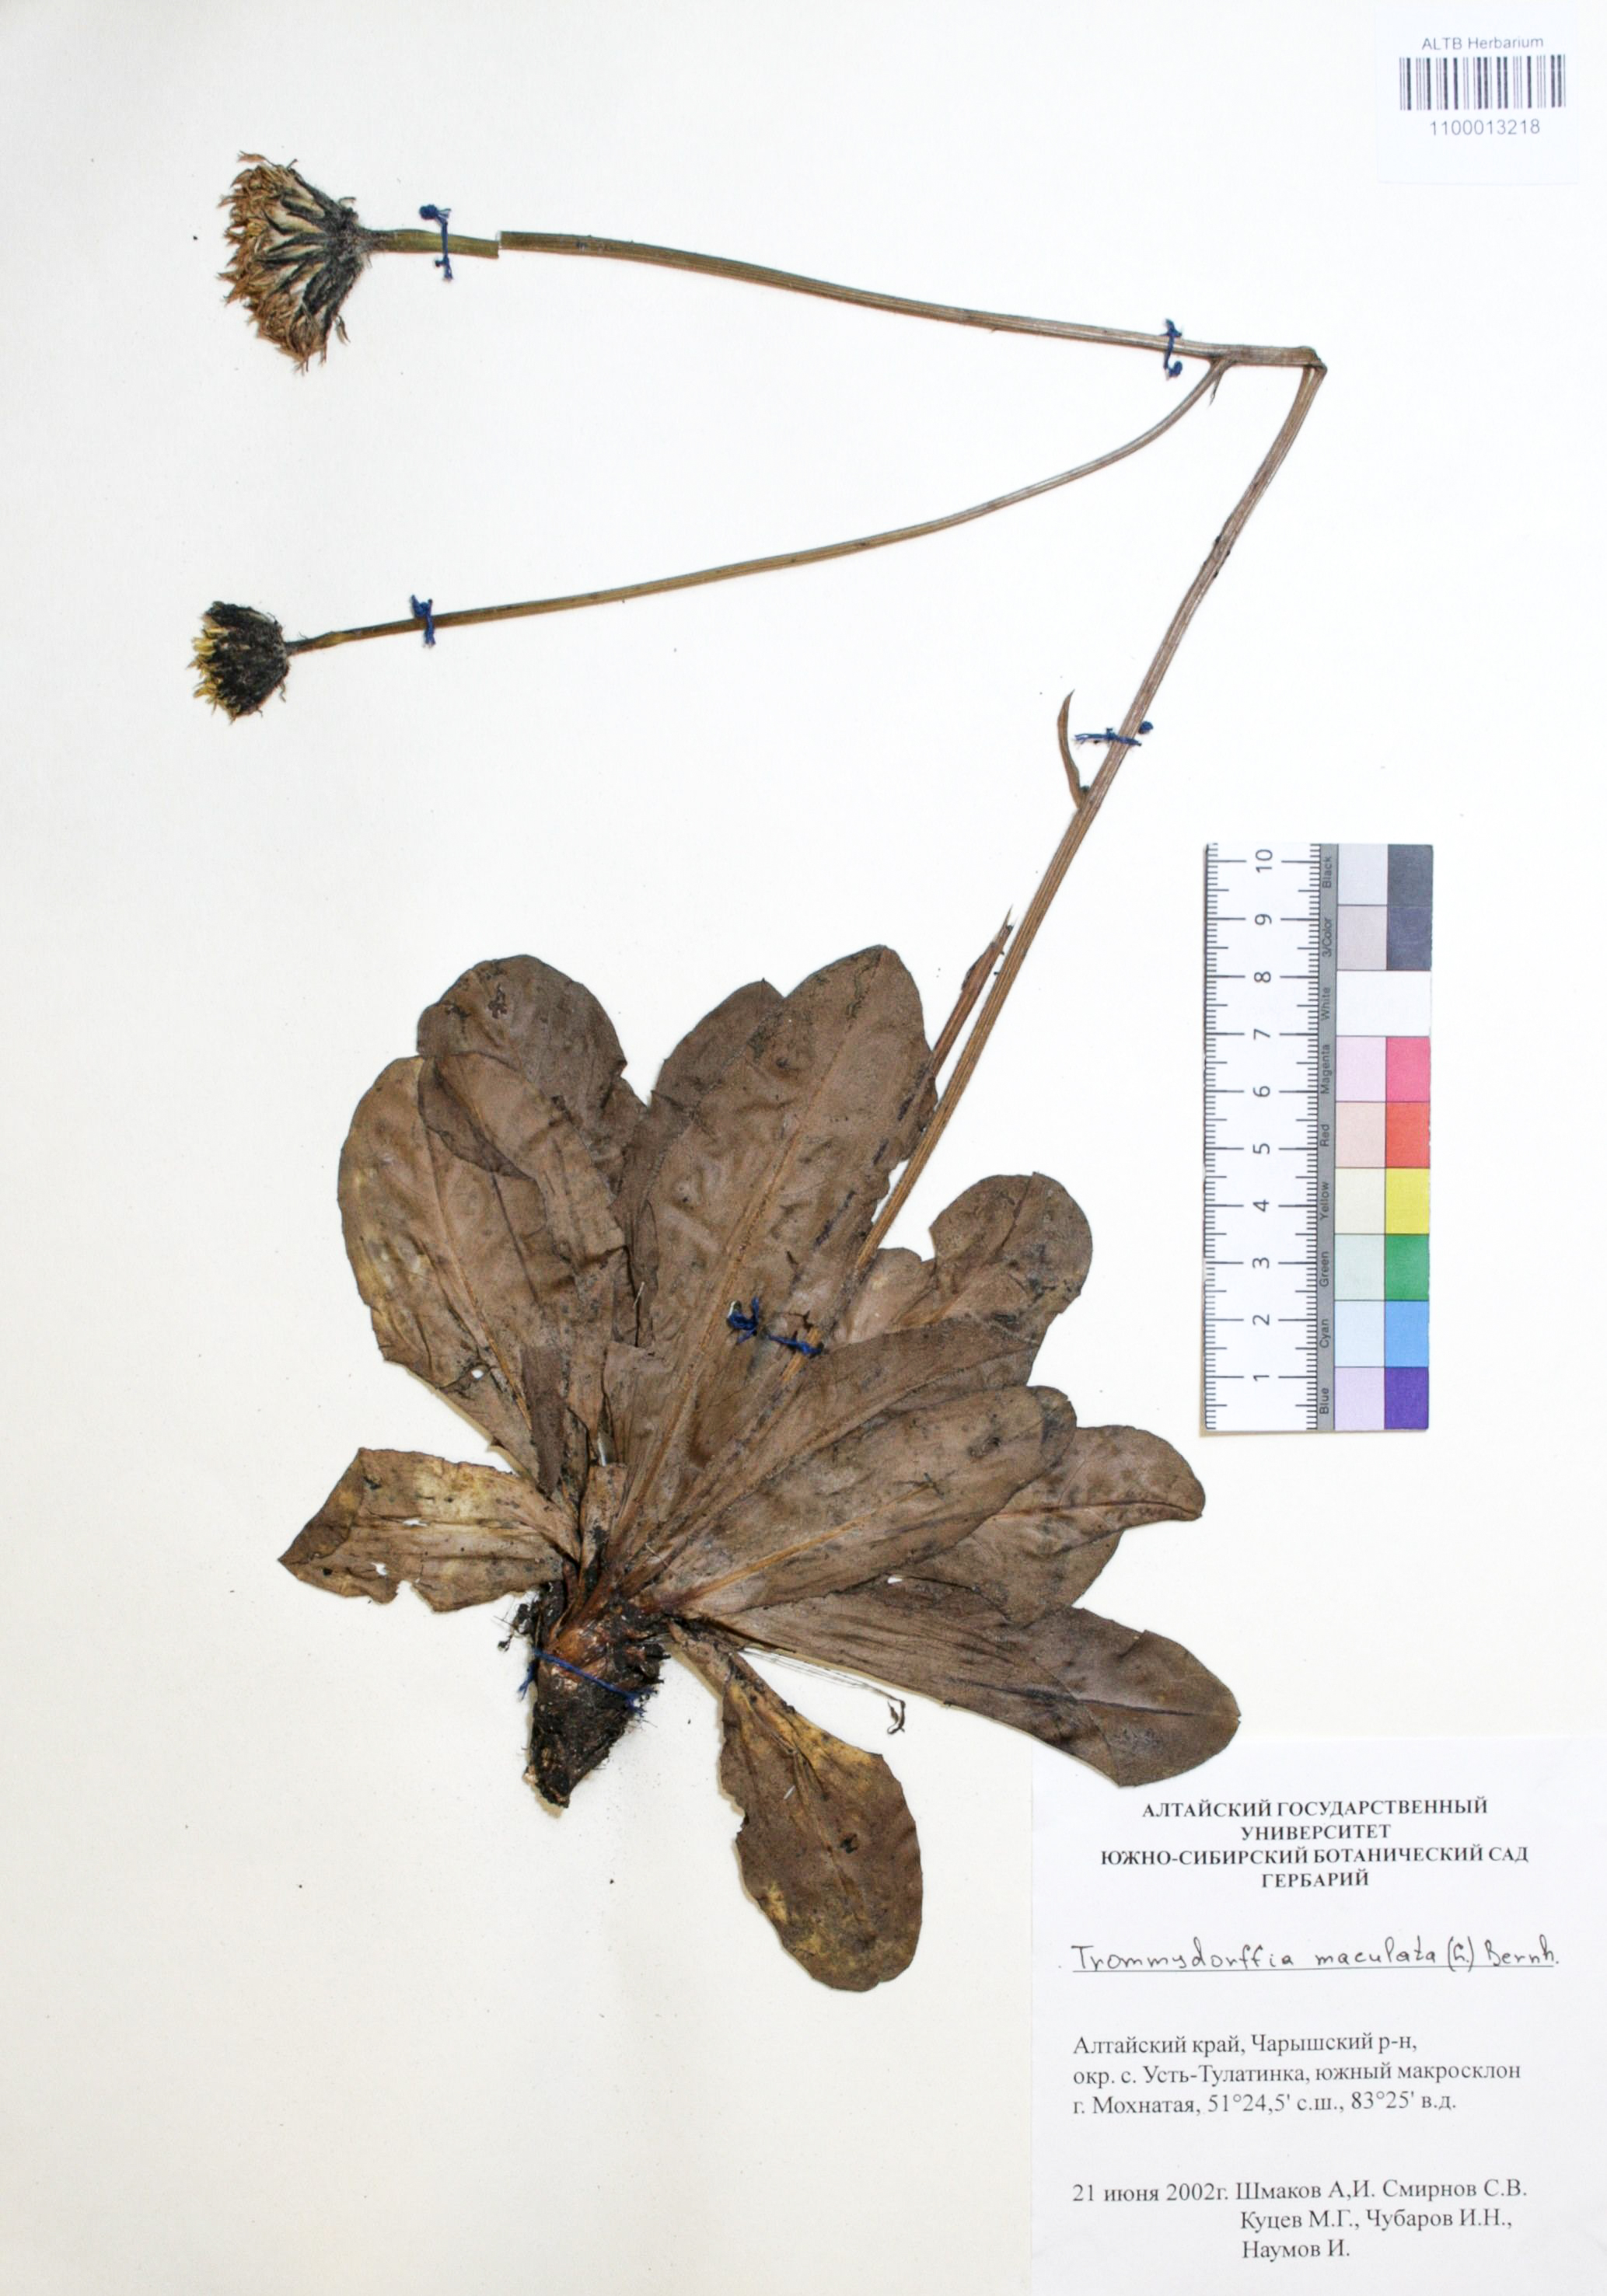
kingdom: Plantae
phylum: Tracheophyta
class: Magnoliopsida
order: Asterales
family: Asteraceae
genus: Trommsdorffia
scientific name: Trommsdorffia maculata
